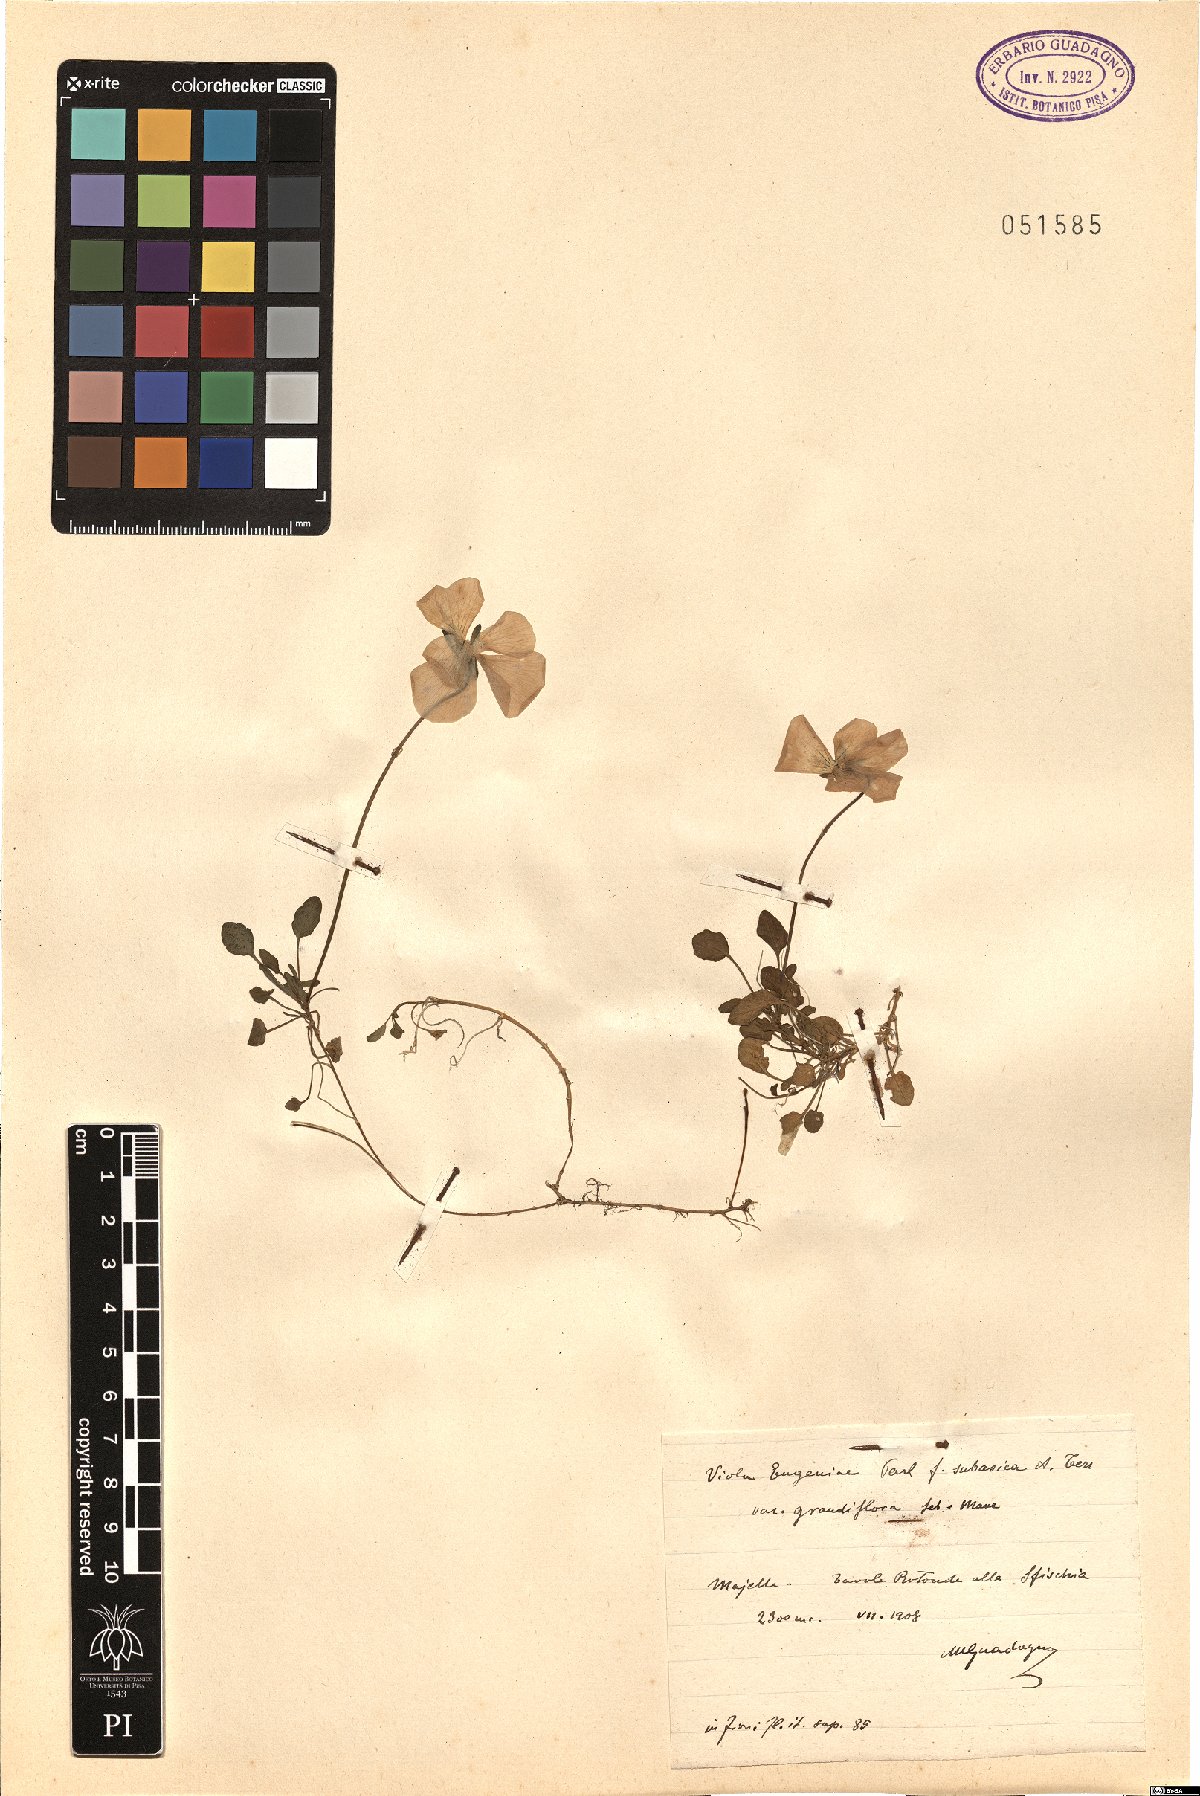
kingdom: Plantae
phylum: Tracheophyta
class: Magnoliopsida
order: Malpighiales
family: Violaceae
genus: Viola
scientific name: Viola eugeniae
